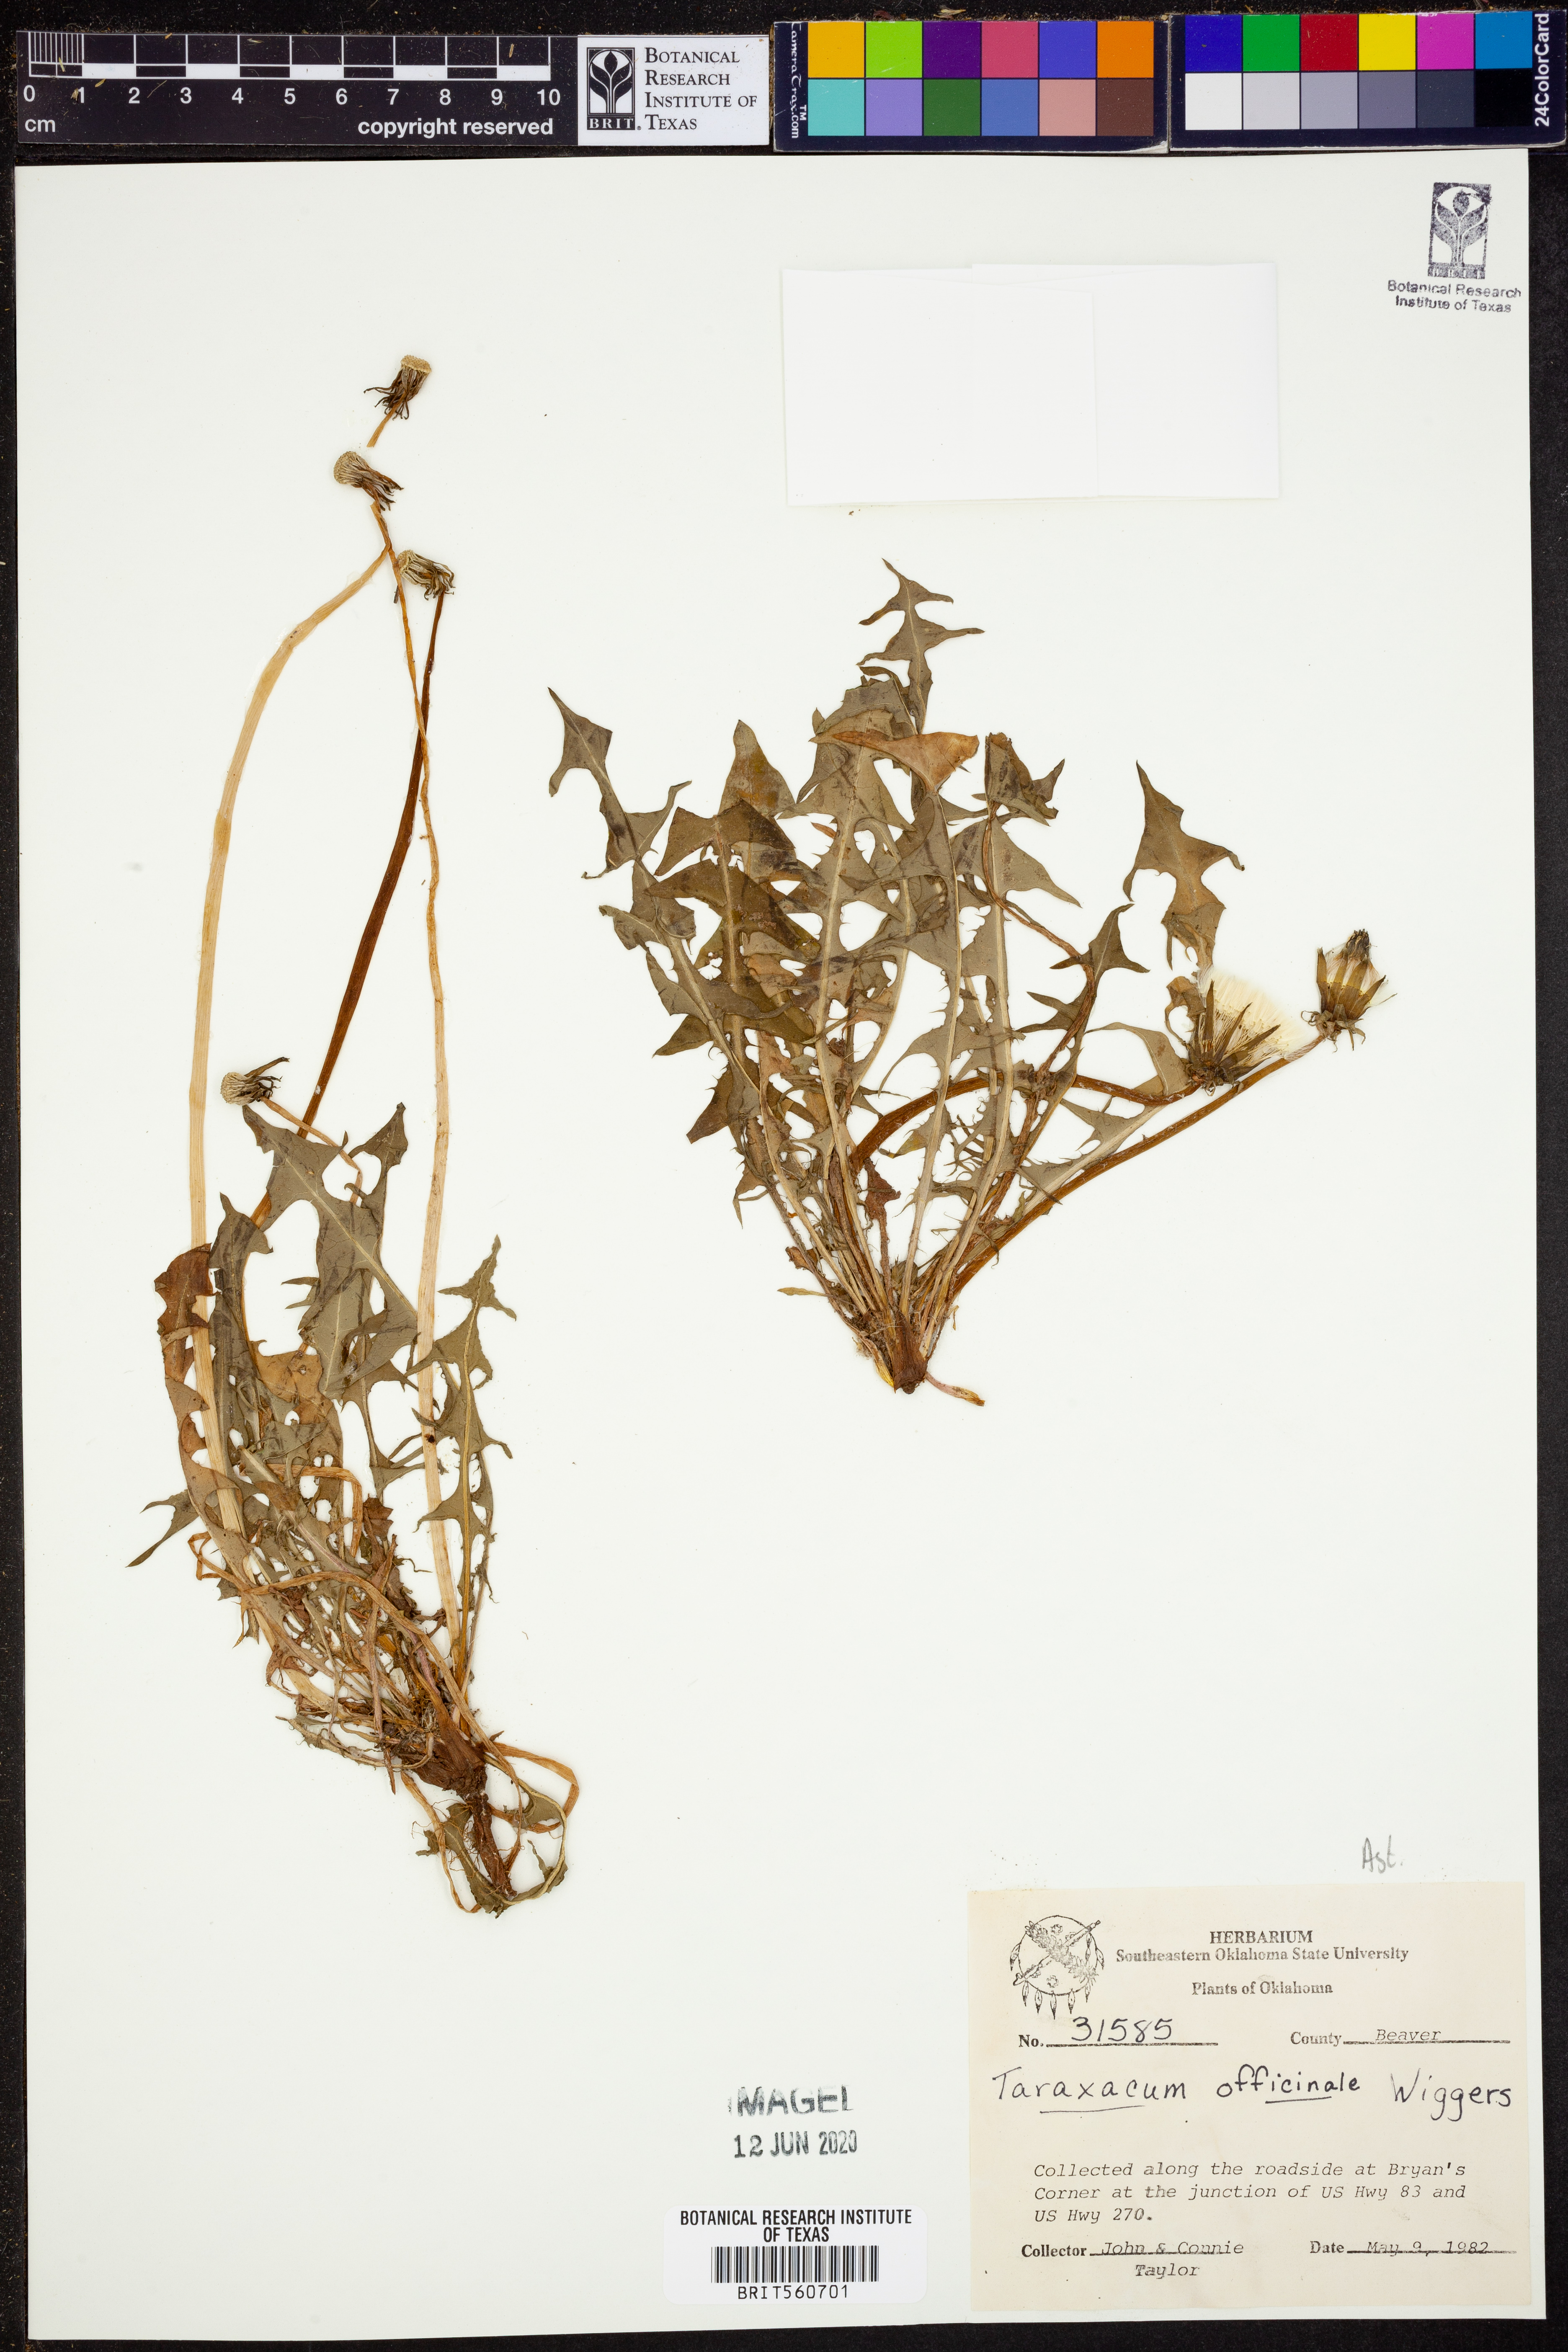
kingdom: Plantae
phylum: Tracheophyta
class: Magnoliopsida
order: Asterales
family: Asteraceae
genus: Taraxacum
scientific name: Taraxacum officinale
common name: Common dandelion
